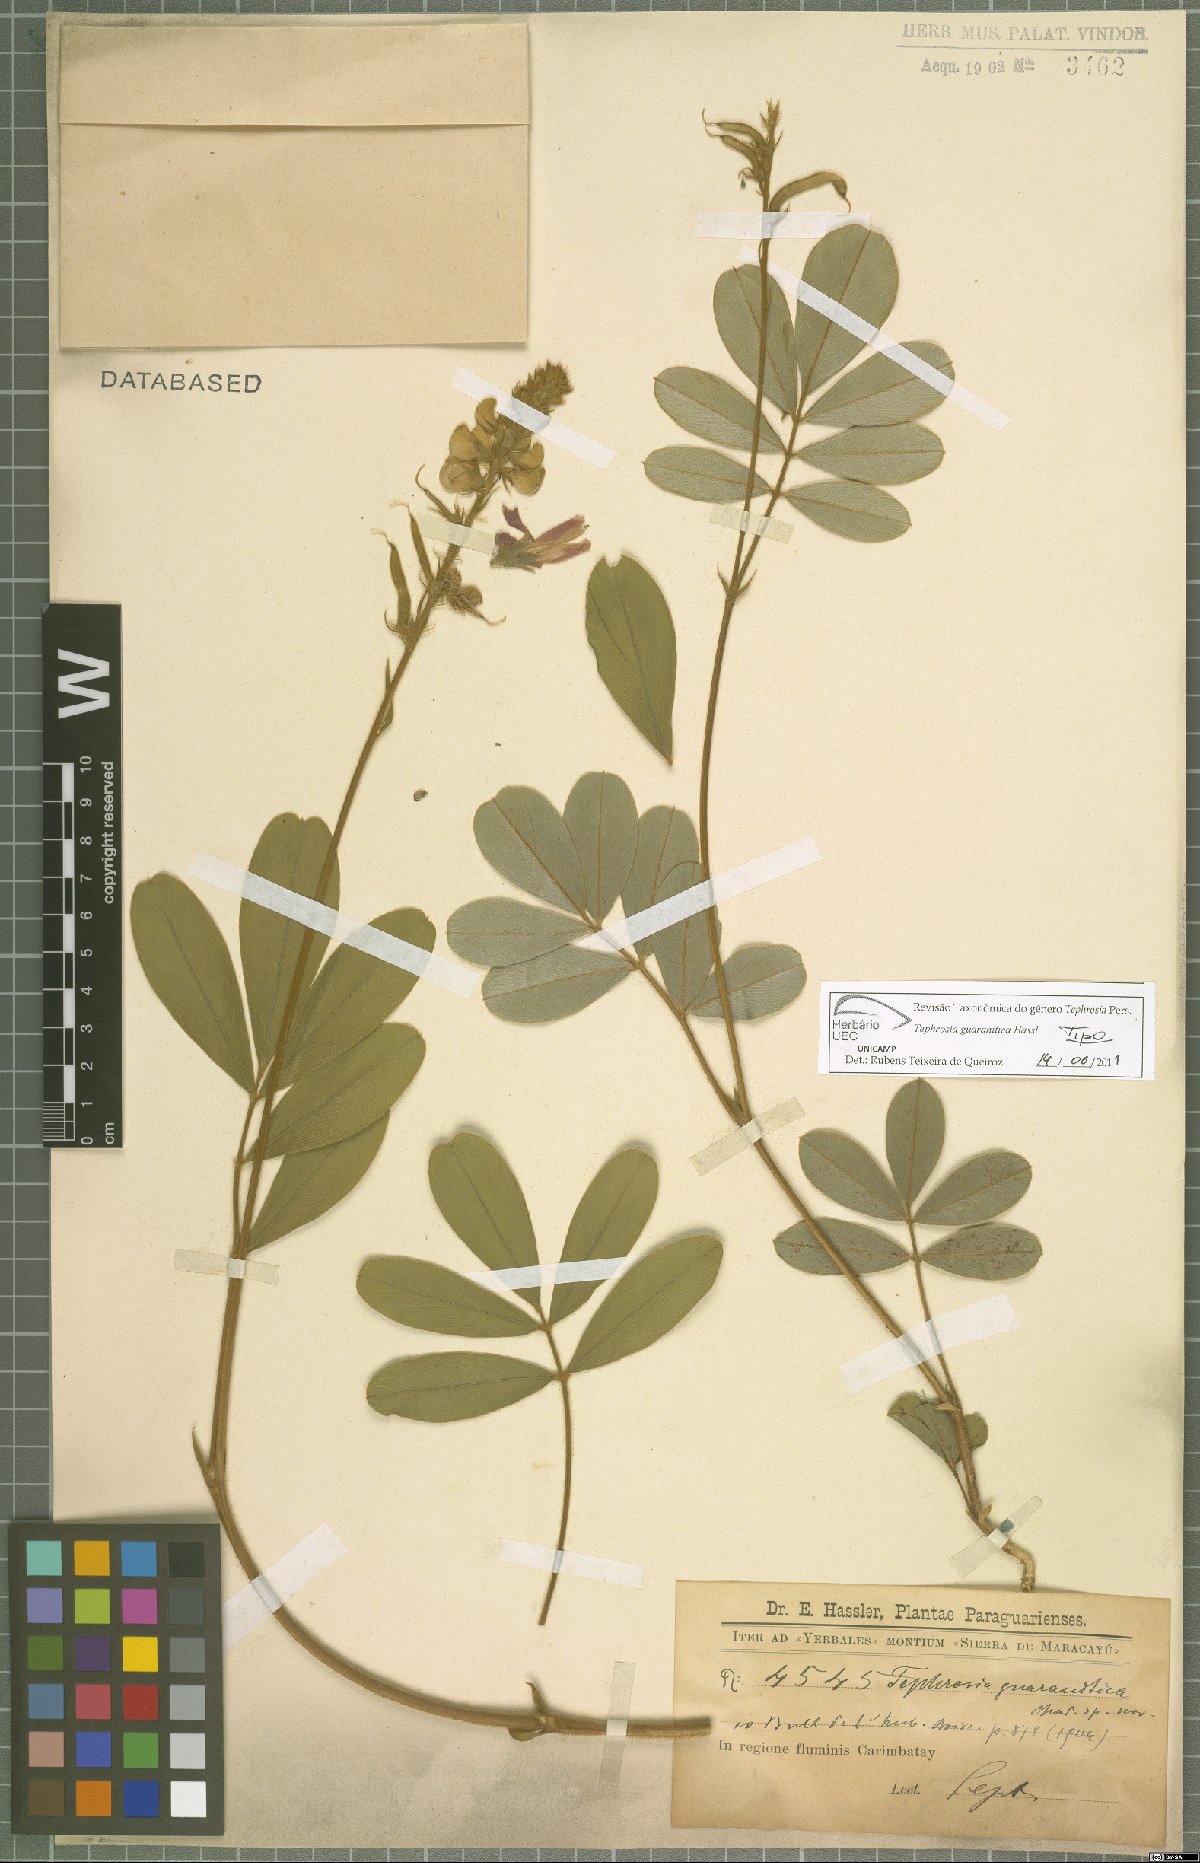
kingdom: Plantae
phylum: Tracheophyta
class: Magnoliopsida
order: Fabales
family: Fabaceae
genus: Tephrosia
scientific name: Tephrosia guaranitica
